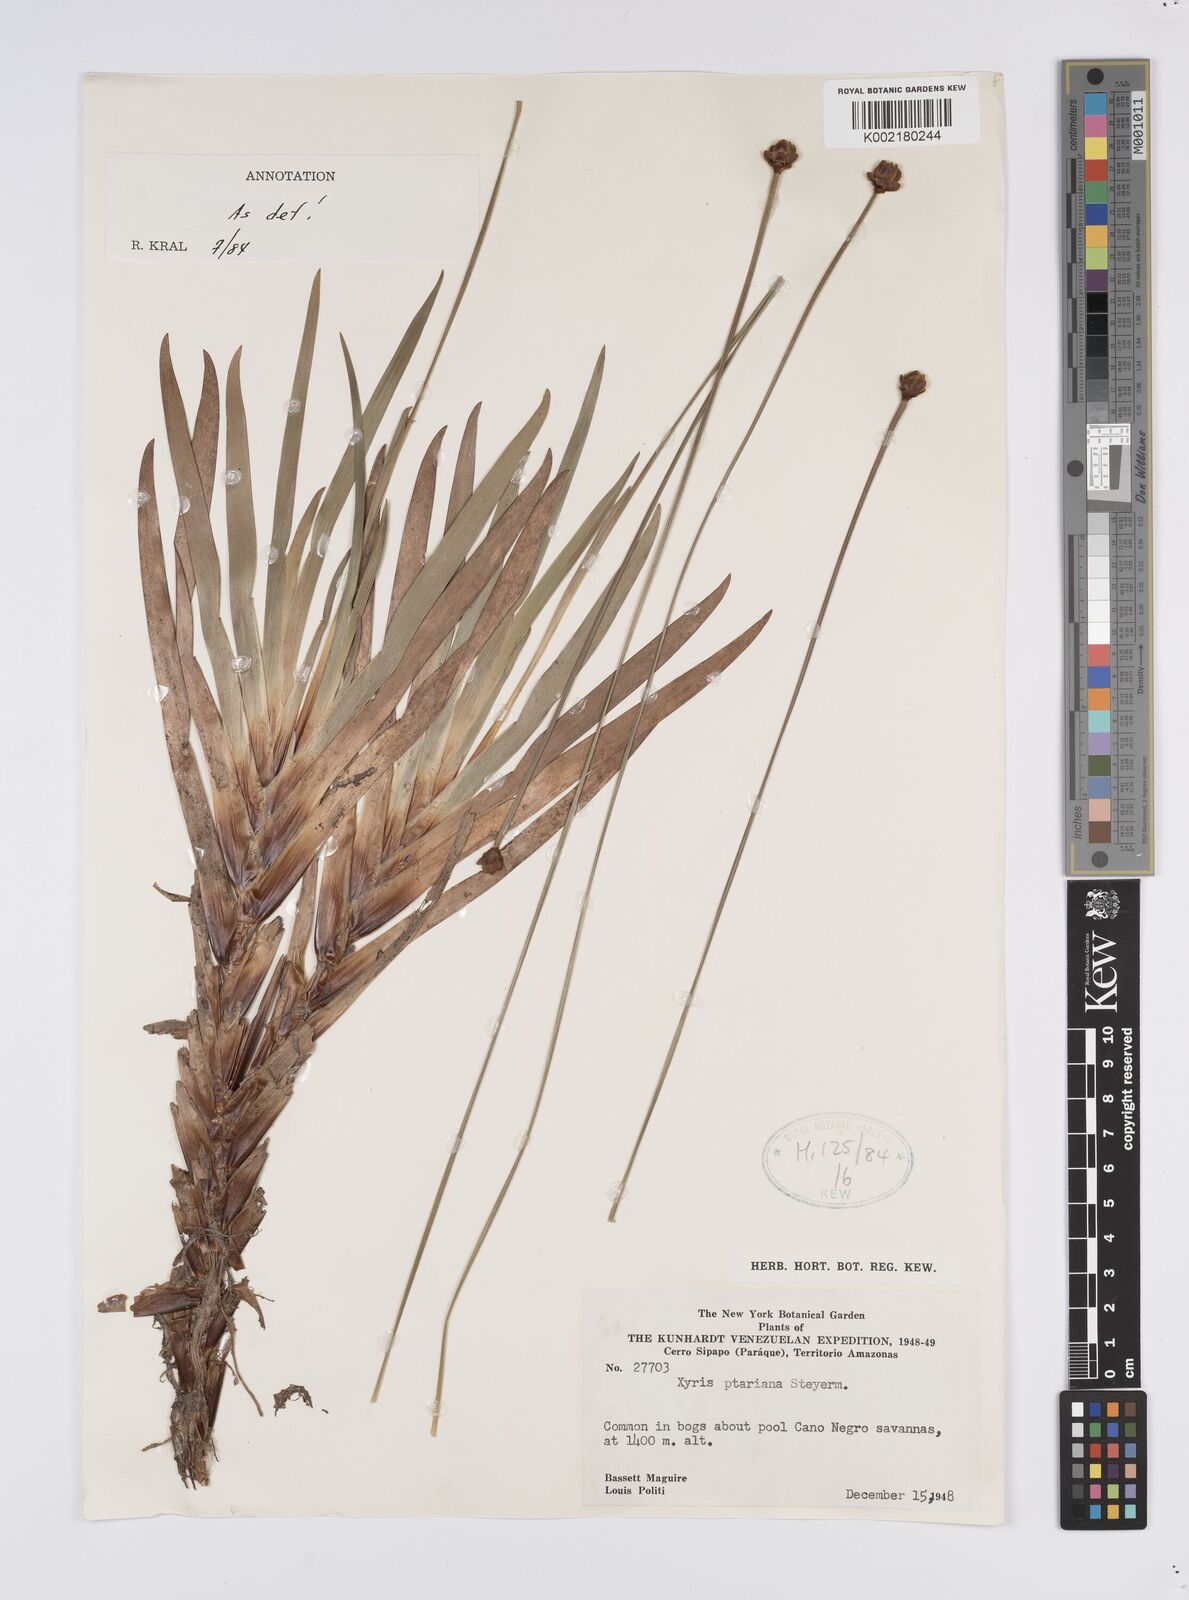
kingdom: Plantae
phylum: Tracheophyta
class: Liliopsida
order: Poales
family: Xyridaceae
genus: Xyris
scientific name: Xyris ptariana
